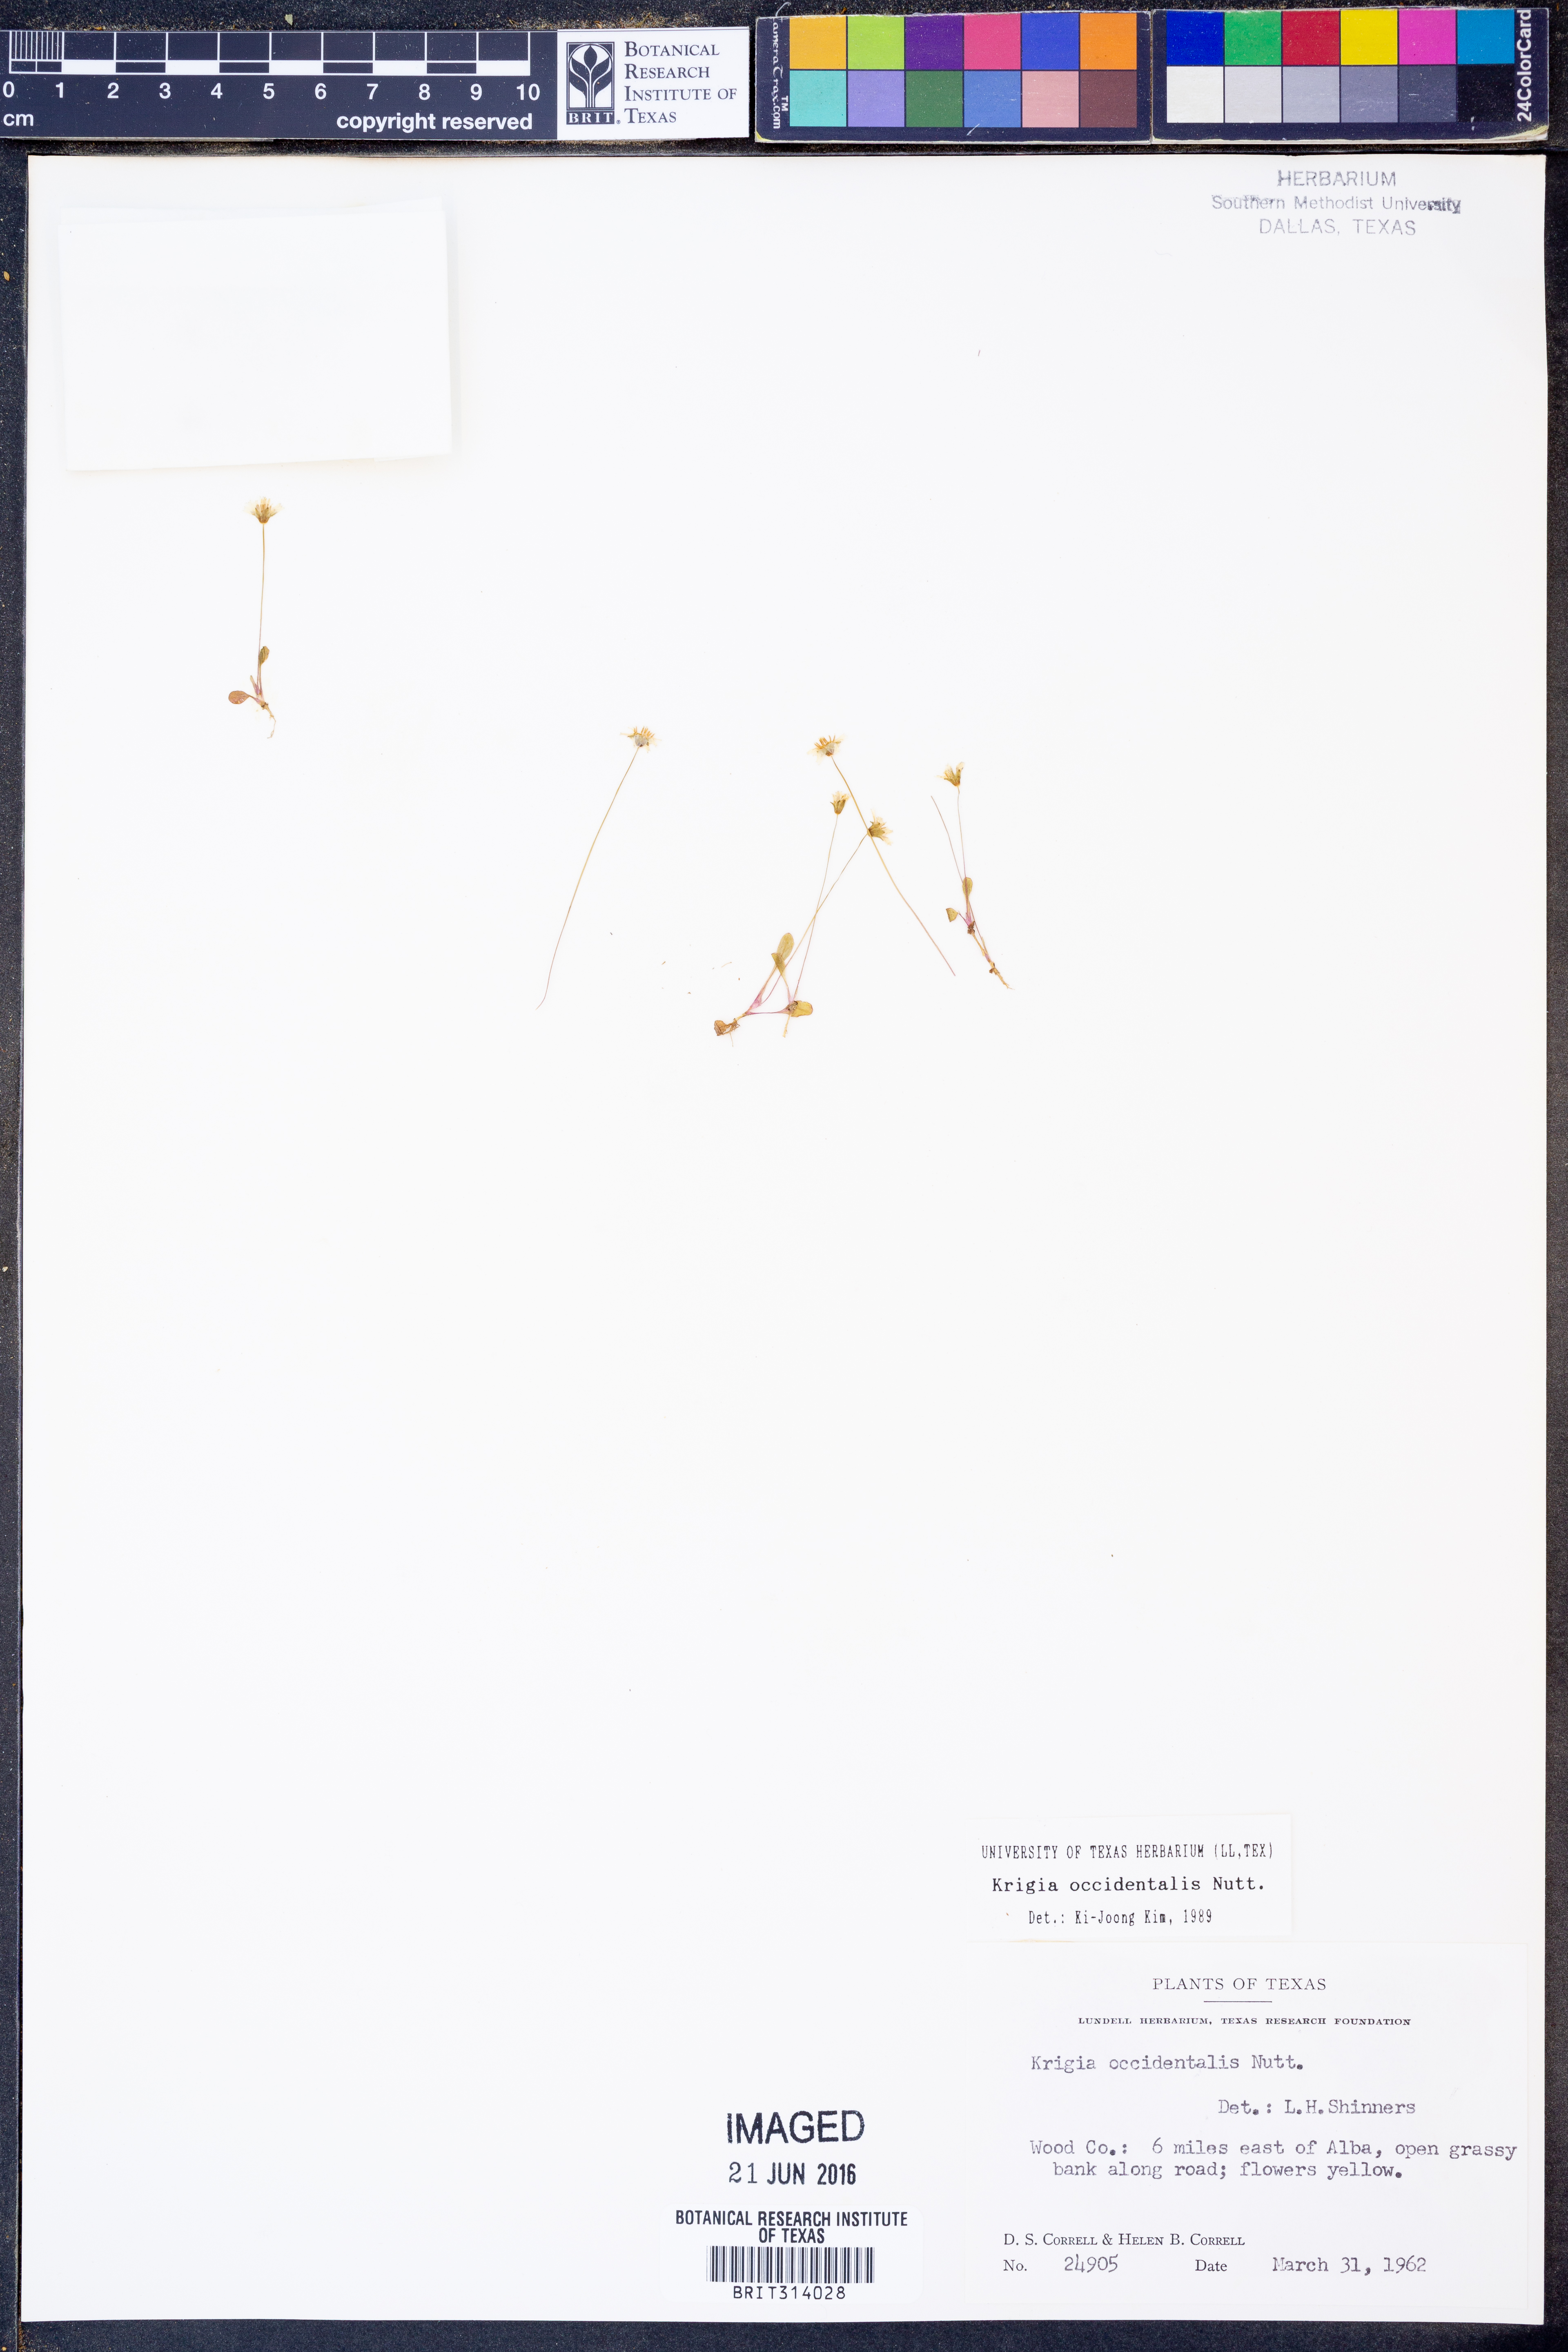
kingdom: Plantae
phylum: Tracheophyta
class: Magnoliopsida
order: Asterales
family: Asteraceae
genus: Krigia
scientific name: Krigia occidentalis
